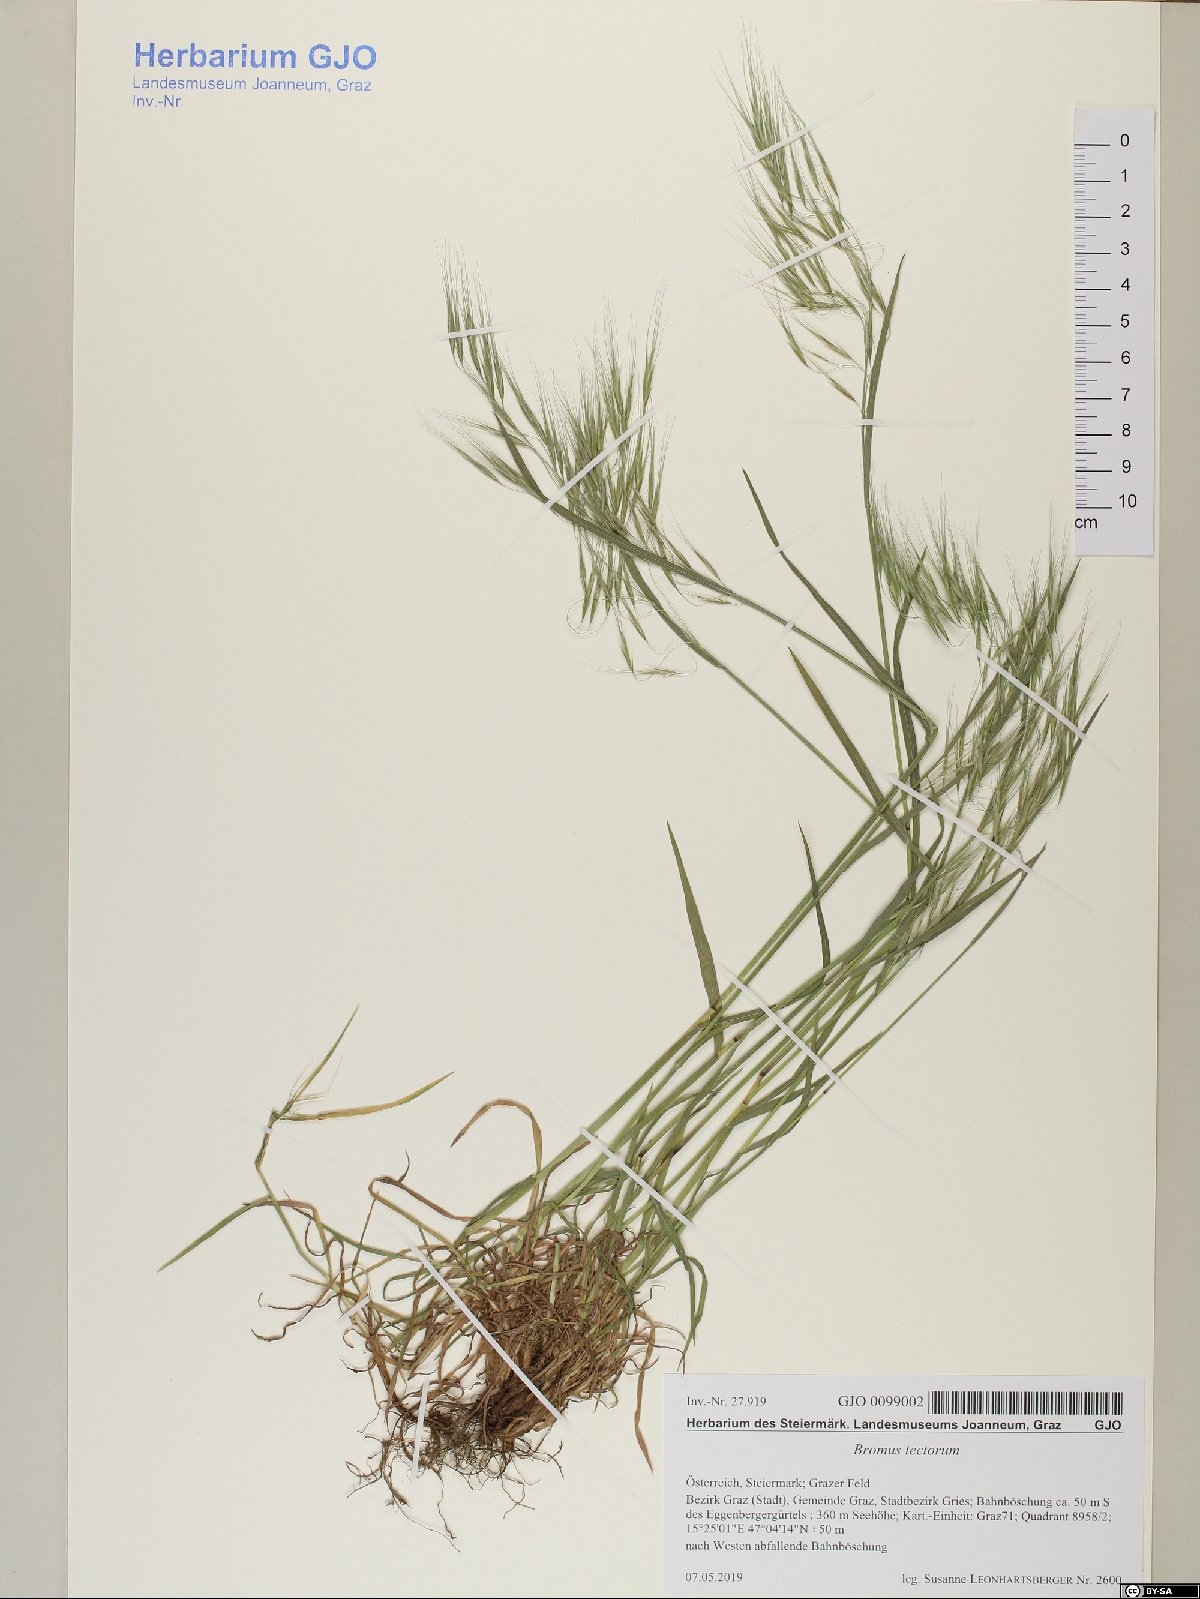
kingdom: Plantae
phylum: Tracheophyta
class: Liliopsida
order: Poales
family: Poaceae
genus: Bromus
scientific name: Bromus tectorum
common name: Cheatgrass
